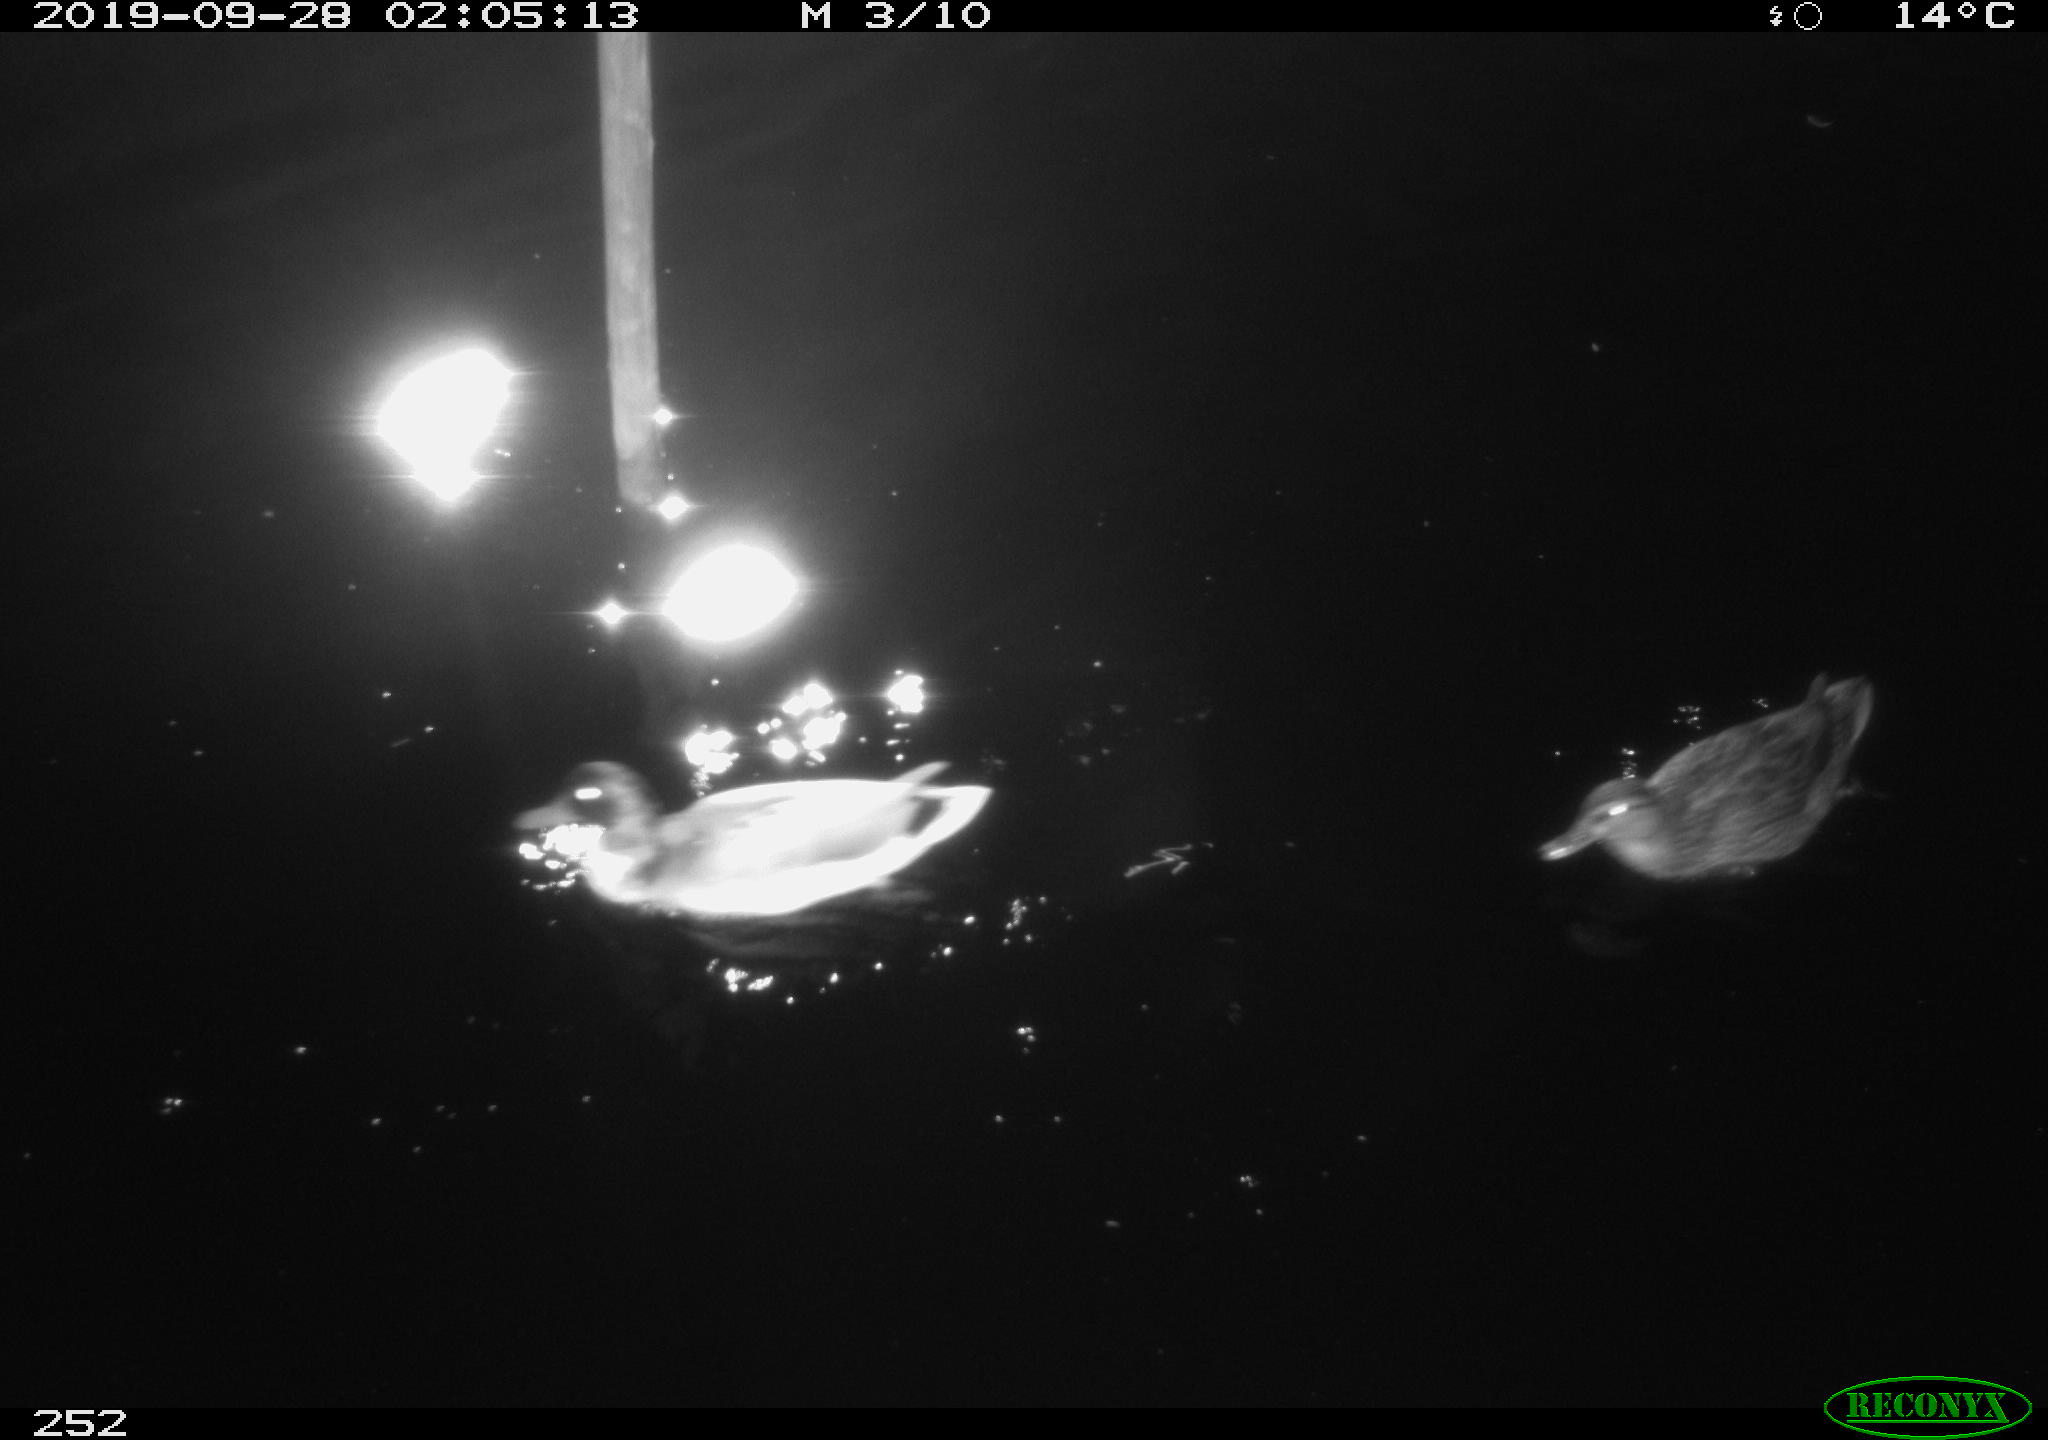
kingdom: Animalia
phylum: Chordata
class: Aves
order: Anseriformes
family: Anatidae
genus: Anas
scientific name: Anas platyrhynchos
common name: Mallard
